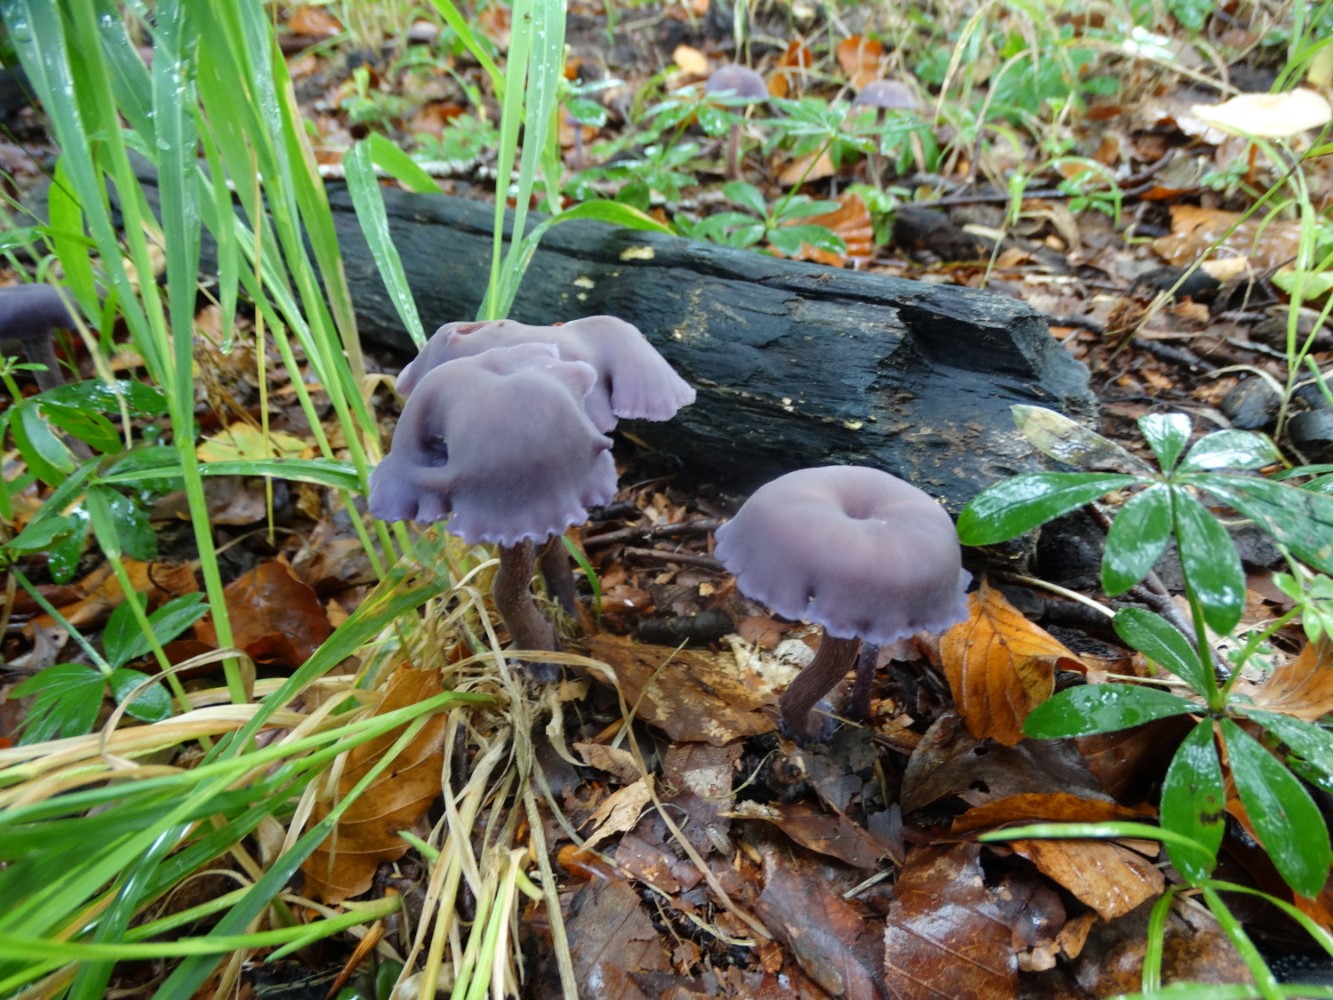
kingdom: Fungi
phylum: Basidiomycota
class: Agaricomycetes
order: Agaricales
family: Hydnangiaceae
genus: Laccaria
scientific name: Laccaria amethystina
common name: violet ametysthat
